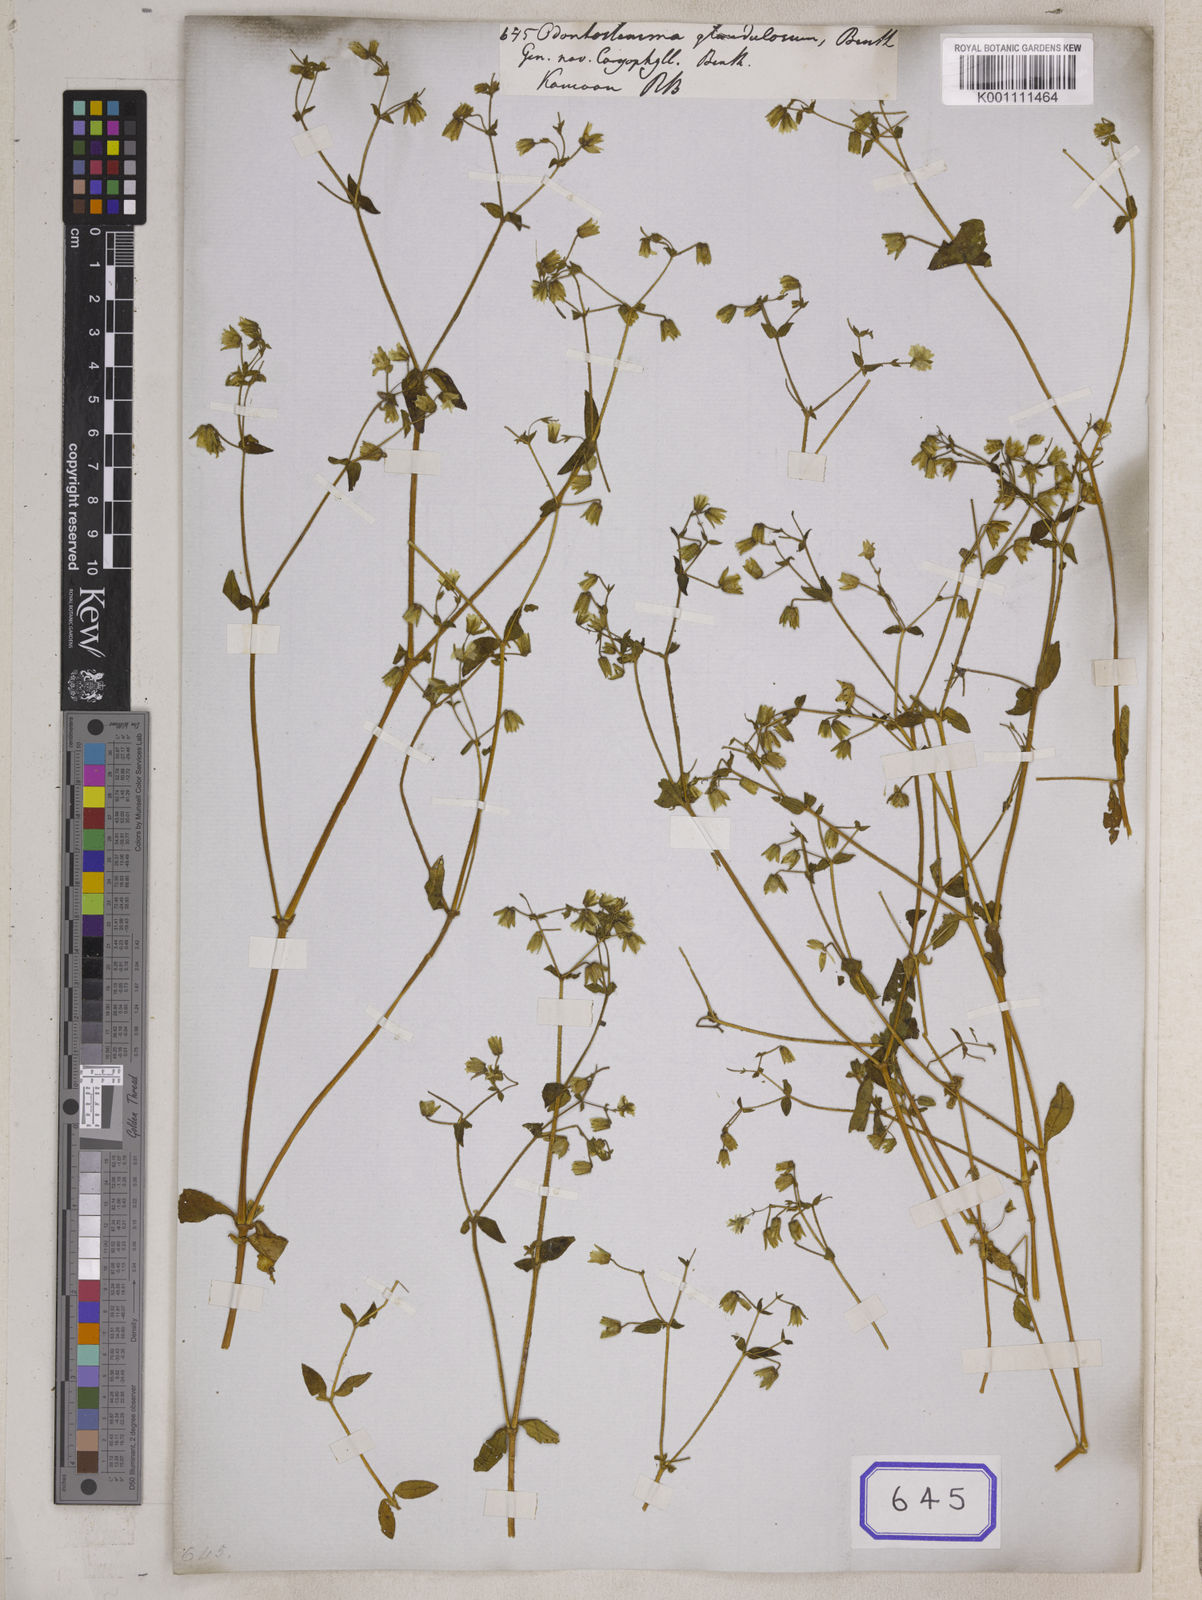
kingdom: Plantae
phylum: Tracheophyta
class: Magnoliopsida
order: Caryophyllales
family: Caryophyllaceae
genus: Odontostemma
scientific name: Odontostemma
